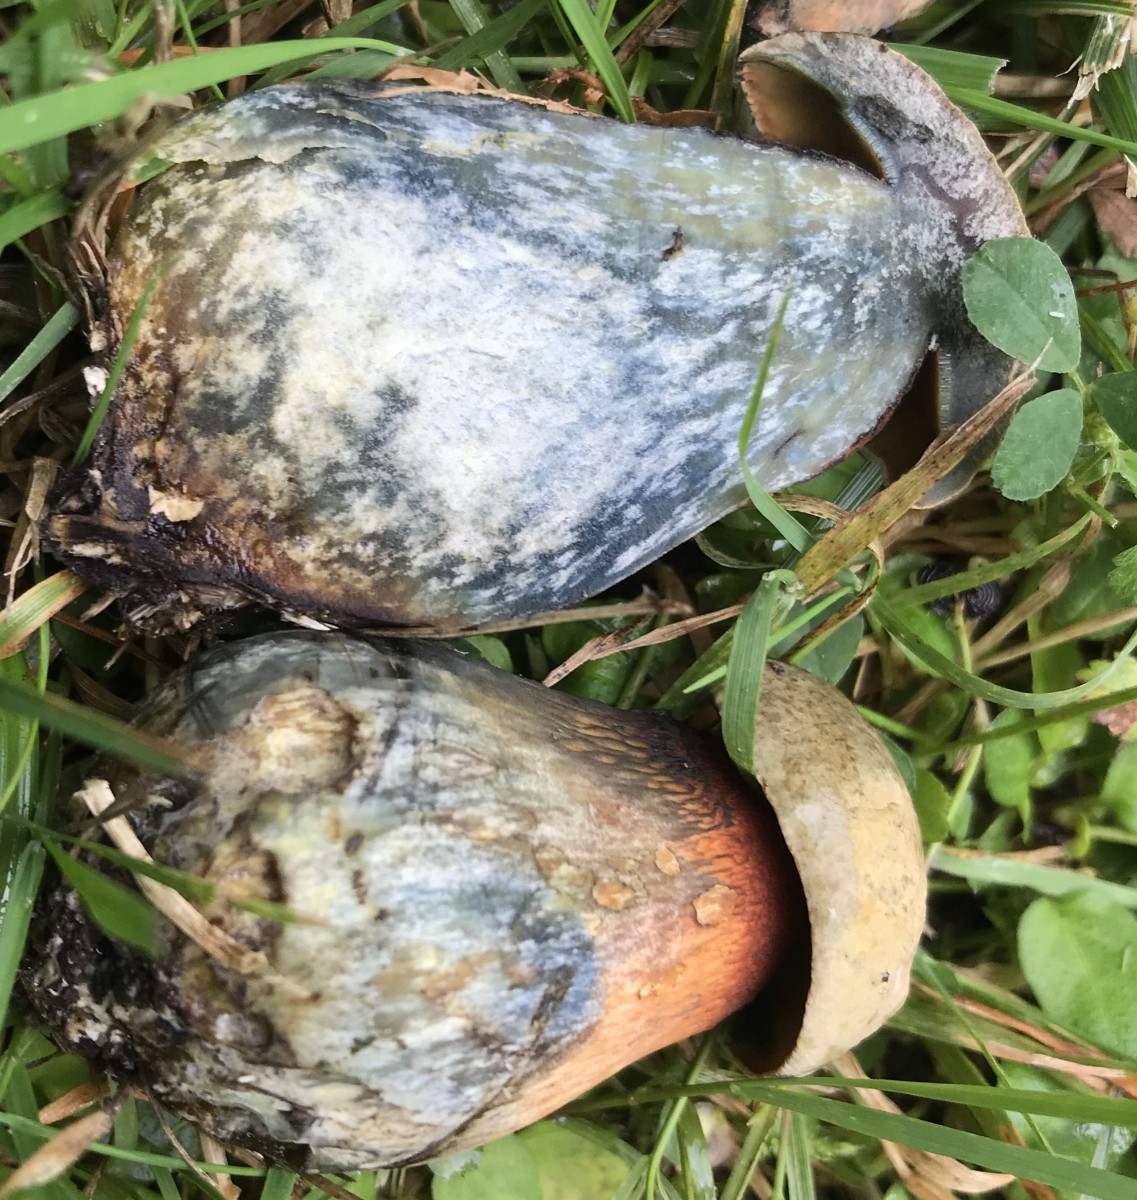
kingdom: Fungi
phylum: Basidiomycota
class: Agaricomycetes
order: Boletales
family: Boletaceae
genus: Suillellus
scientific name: Suillellus luridus
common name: netstokket indigorørhat
